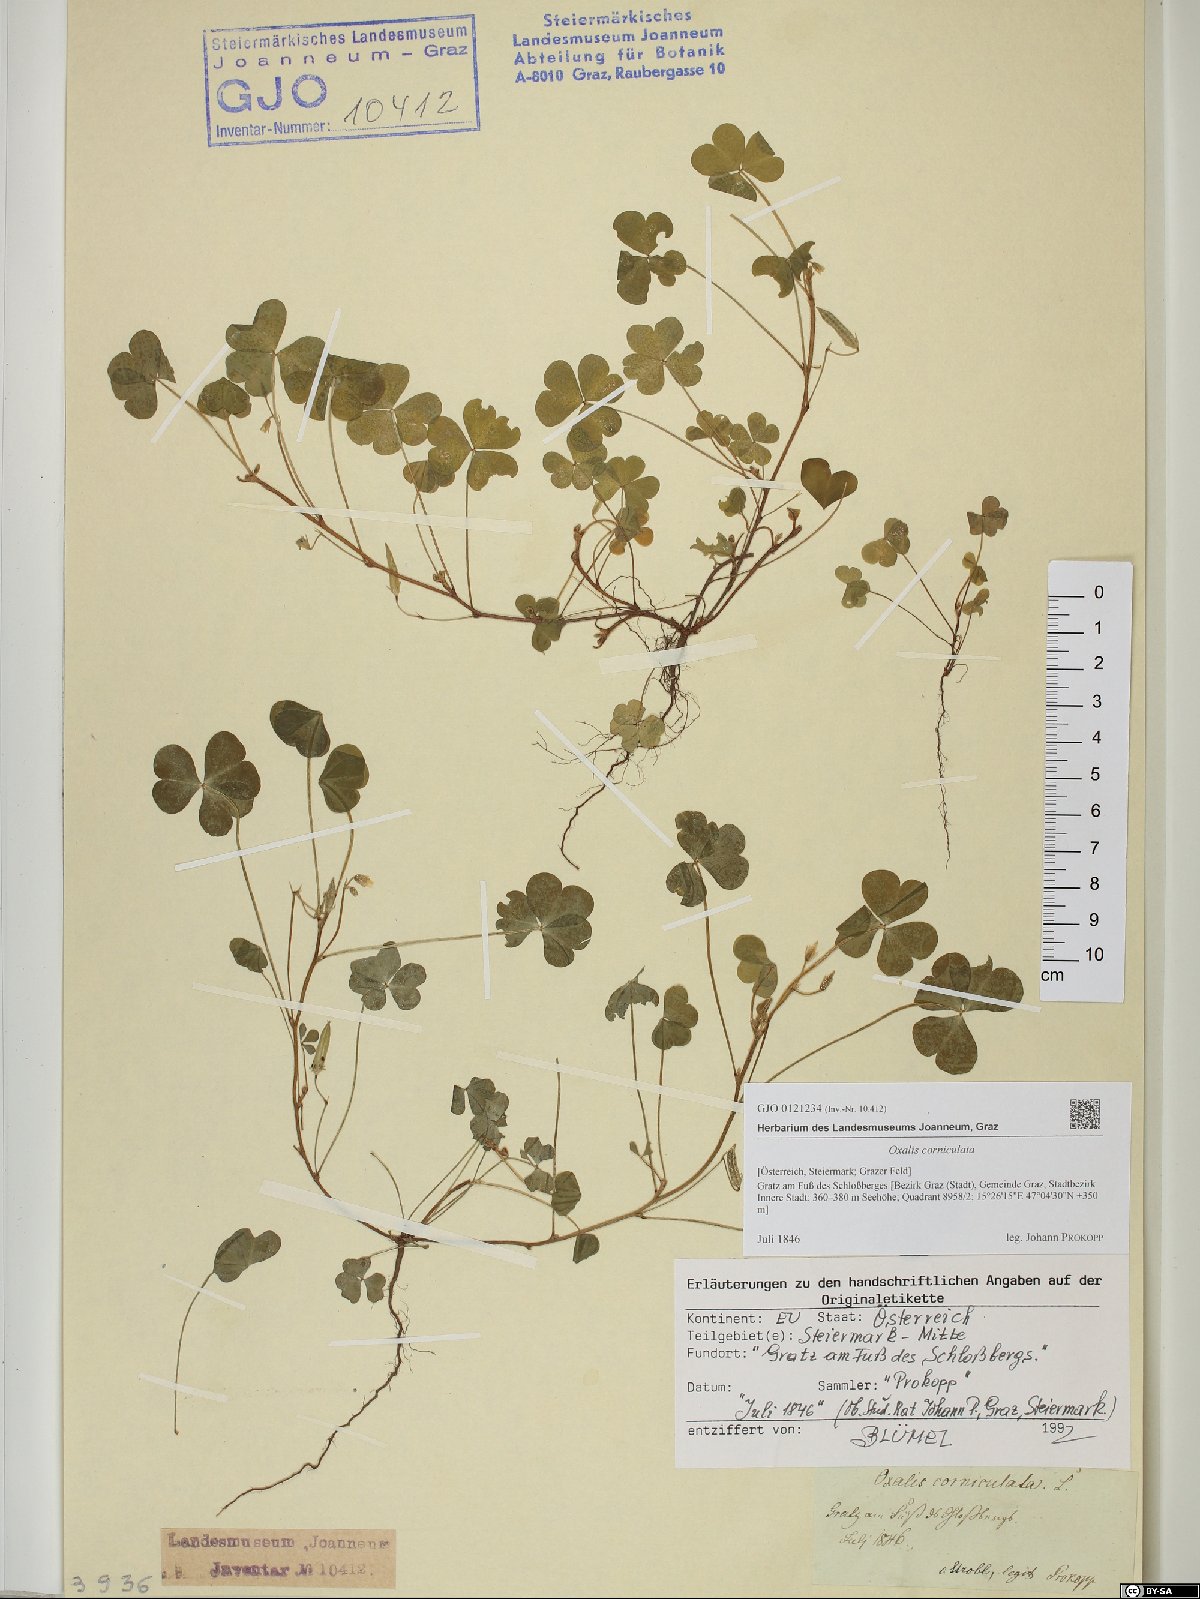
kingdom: Plantae
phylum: Tracheophyta
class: Magnoliopsida
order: Oxalidales
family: Oxalidaceae
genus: Oxalis
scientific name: Oxalis corniculata
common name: Procumbent yellow-sorrel
